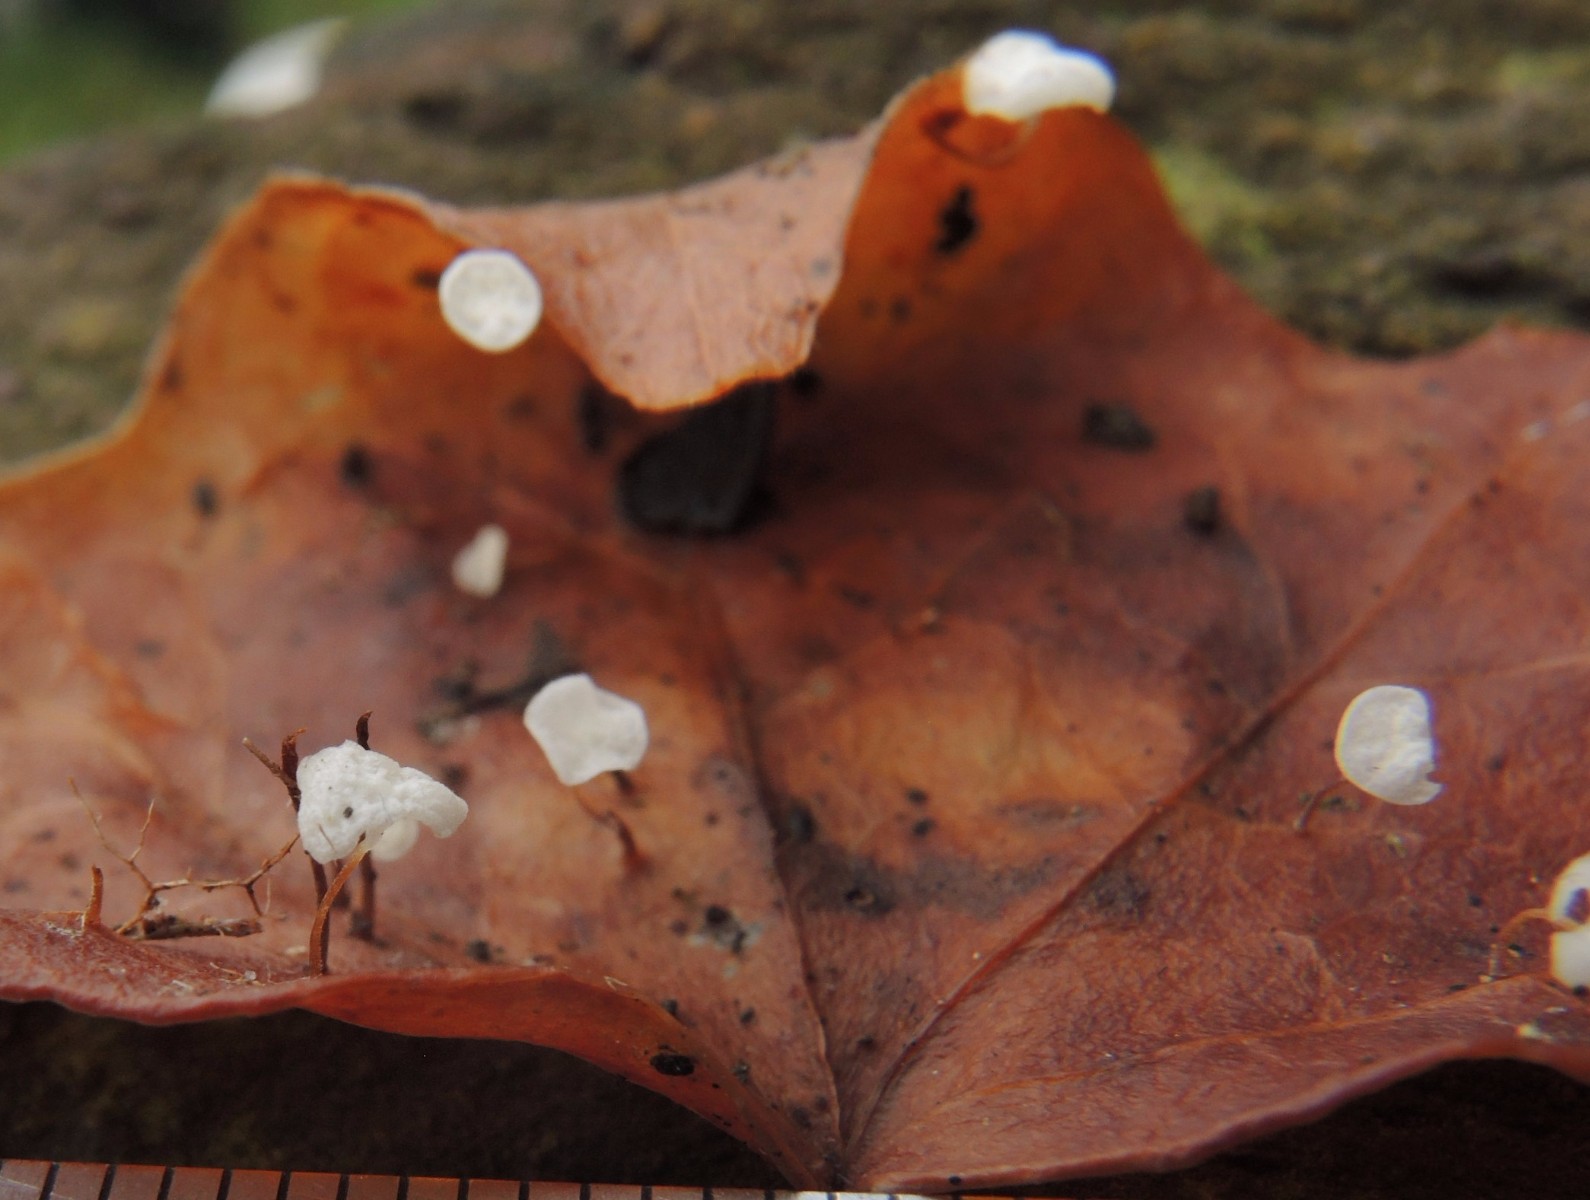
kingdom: Fungi
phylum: Basidiomycota
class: Agaricomycetes
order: Agaricales
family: Marasmiaceae
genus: Marasmius
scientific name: Marasmius epiphylloides
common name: vedbend-bruskhat
